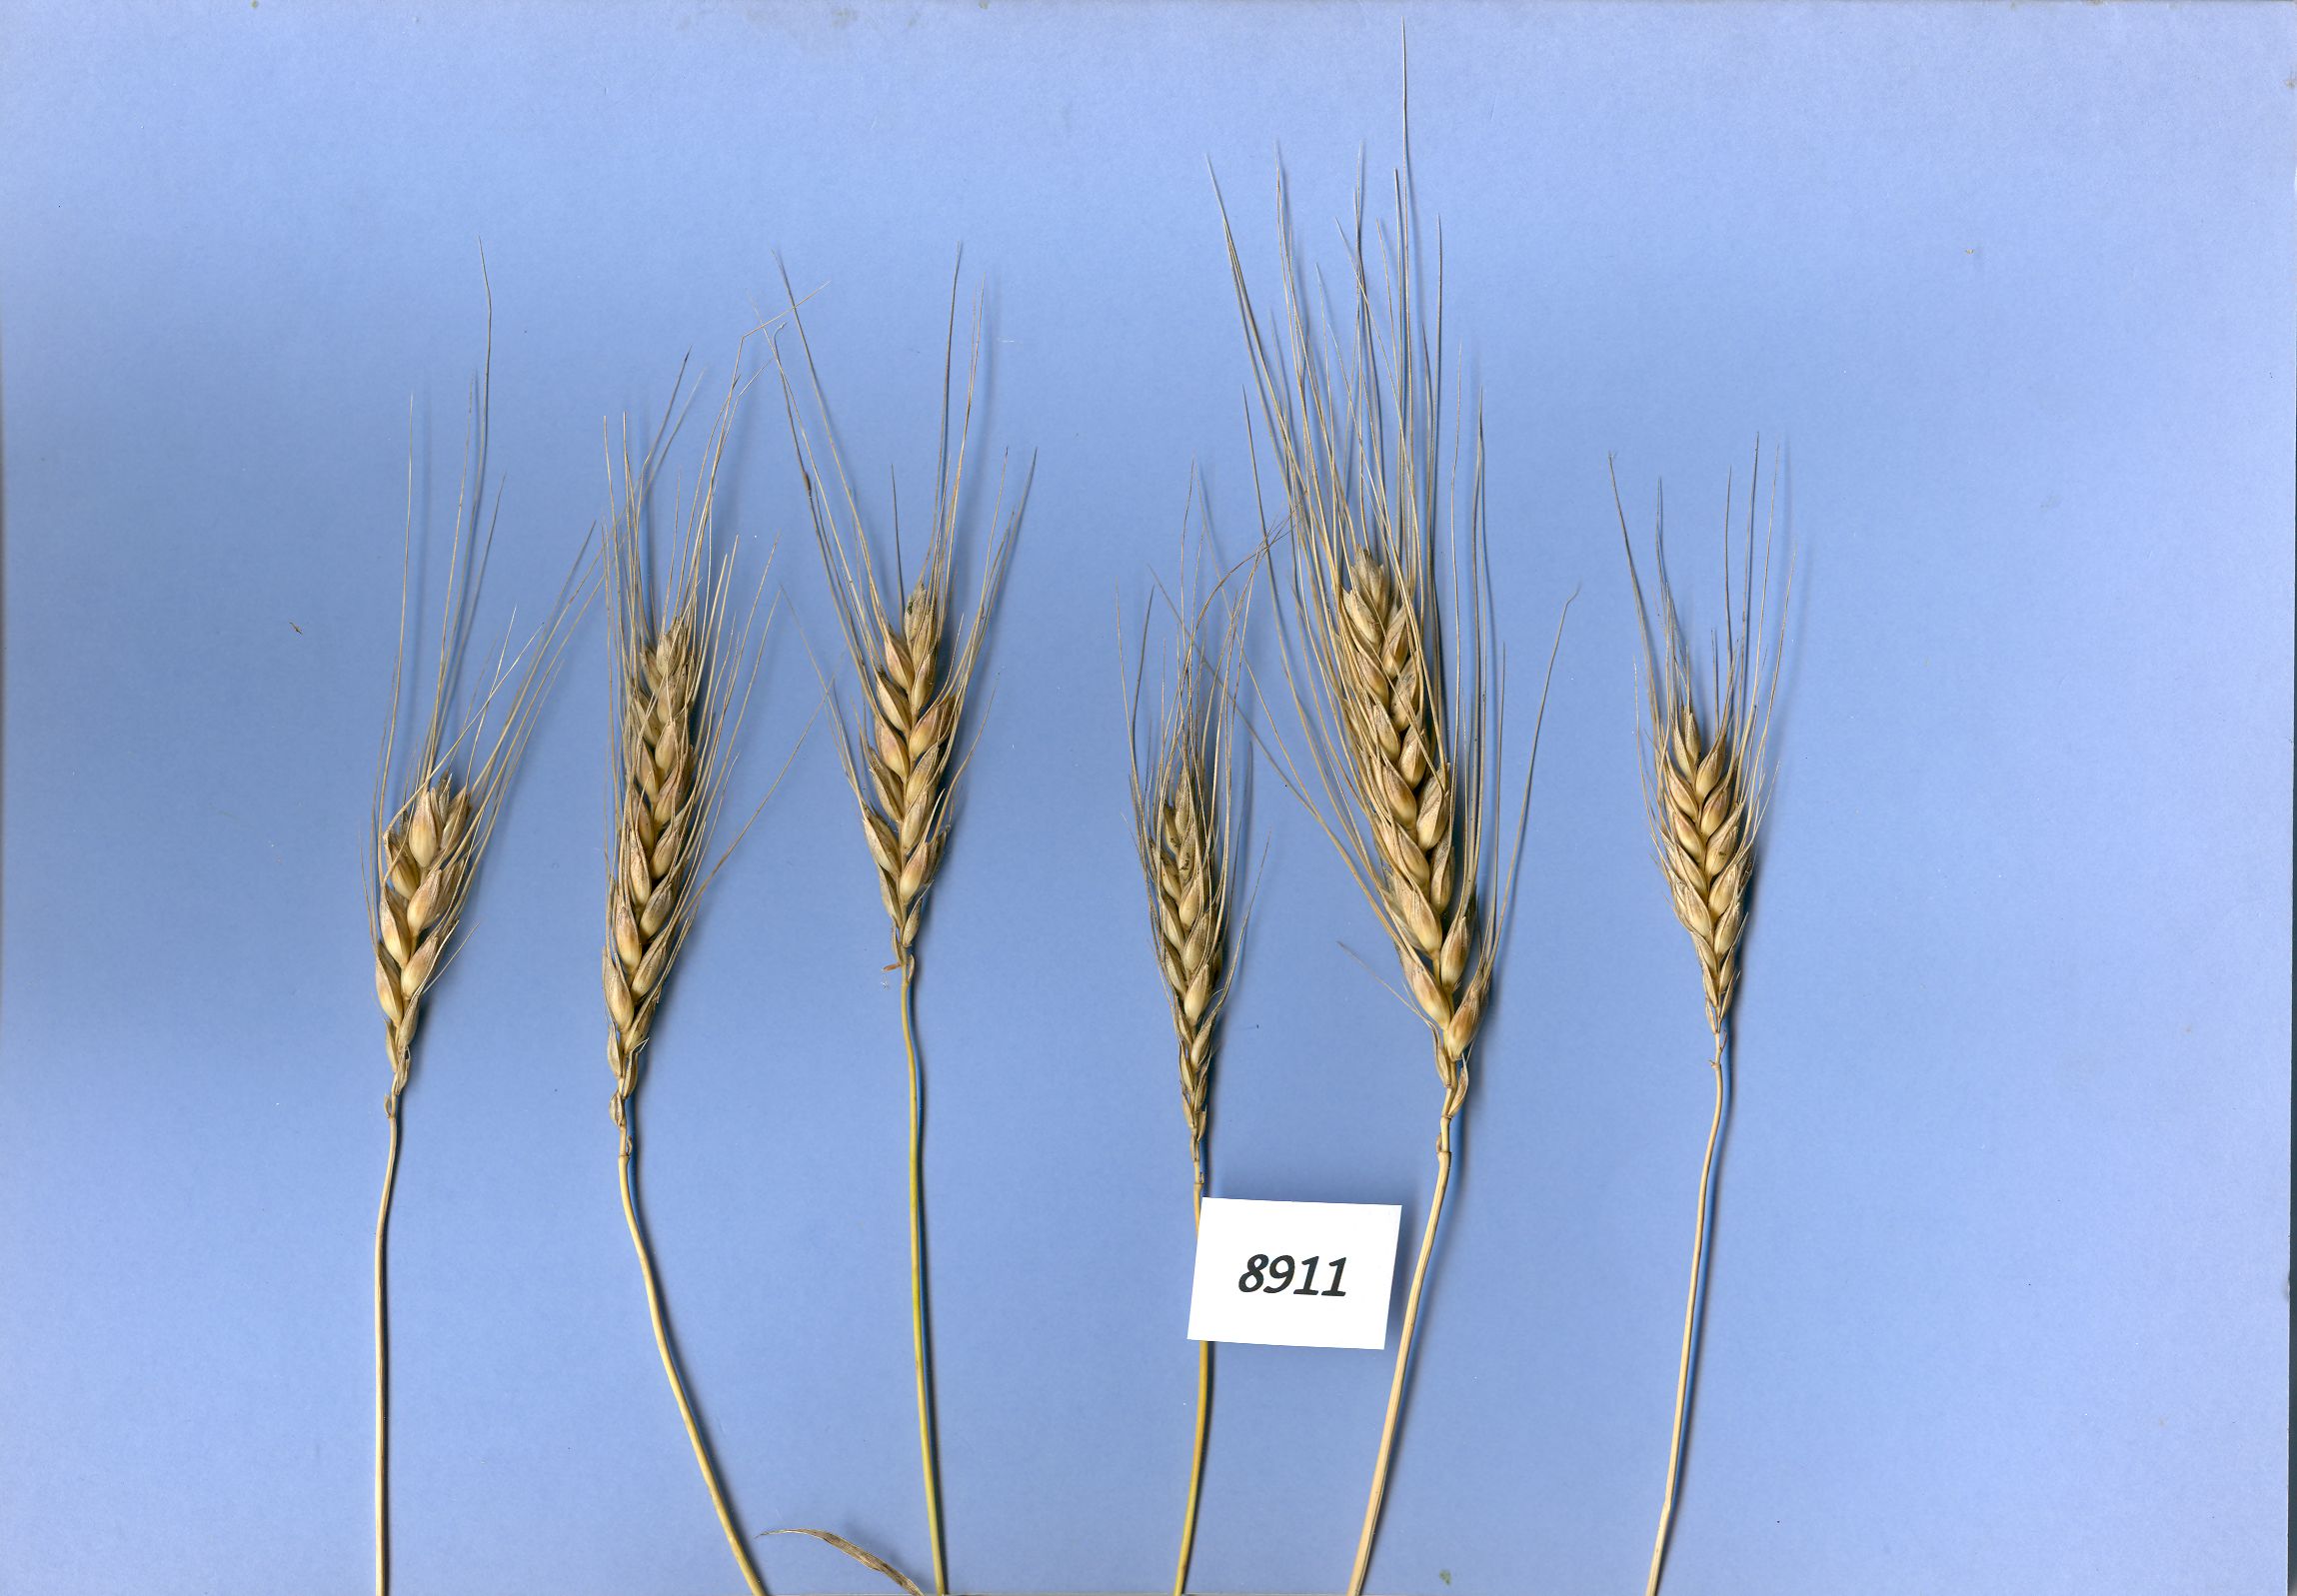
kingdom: Plantae
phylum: Tracheophyta
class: Liliopsida
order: Poales
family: Poaceae
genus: Triticum
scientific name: Triticum turgidum
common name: Rivet wheat
